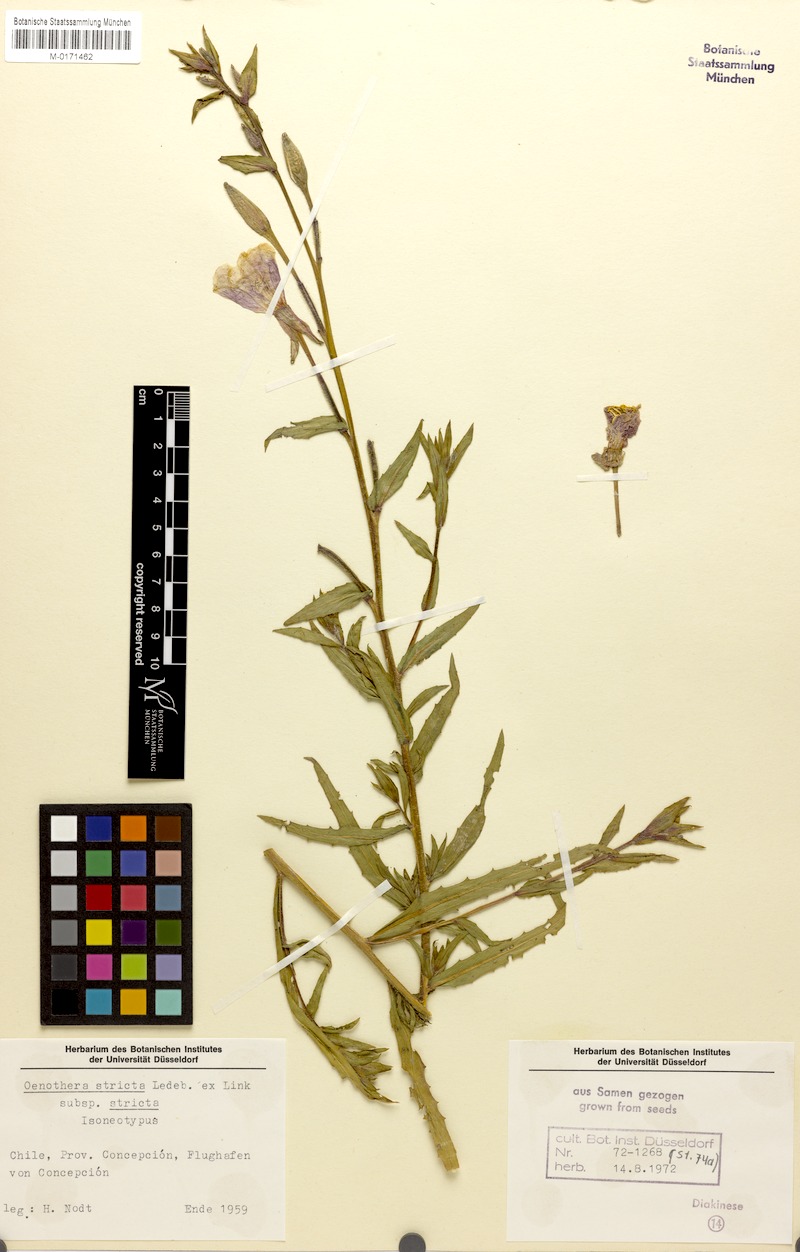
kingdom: Plantae
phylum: Tracheophyta
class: Magnoliopsida
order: Myrtales
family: Onagraceae
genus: Oenothera
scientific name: Oenothera stricta
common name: Fragrant evening-primrose
